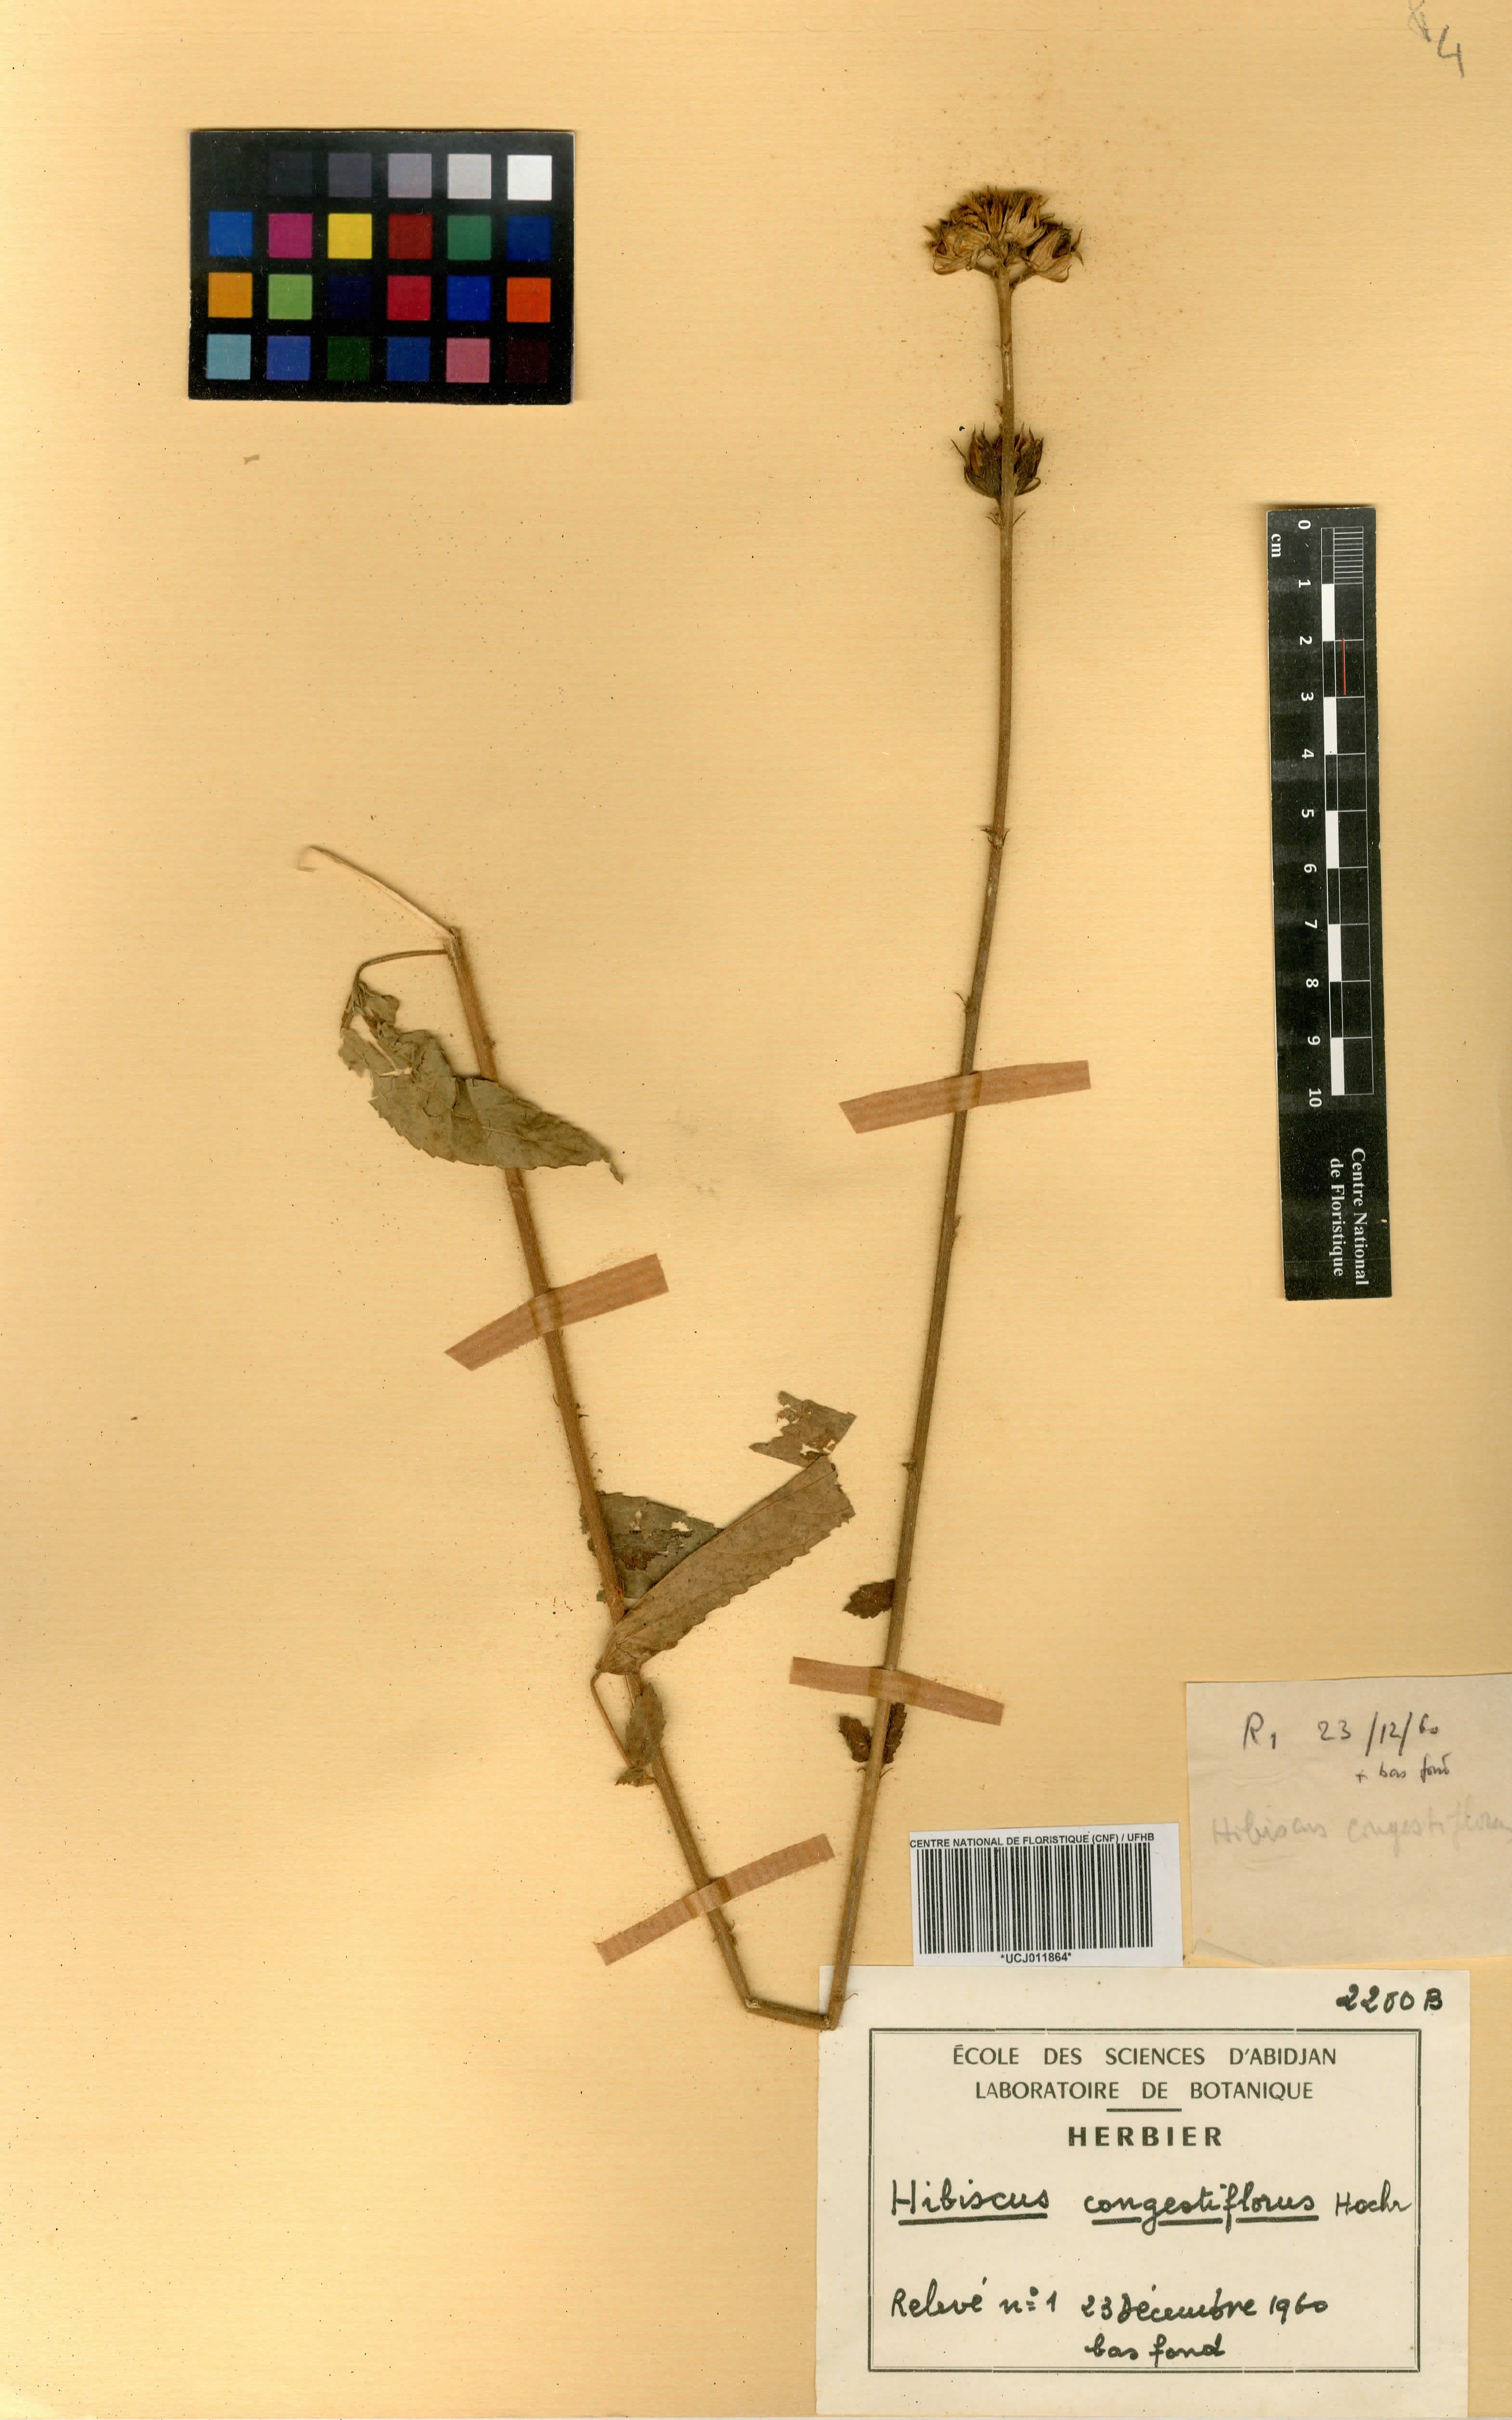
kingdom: Plantae
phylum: Tracheophyta
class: Magnoliopsida
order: Malvales
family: Malvaceae
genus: Hibiscus
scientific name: Hibiscus congestiflorus
